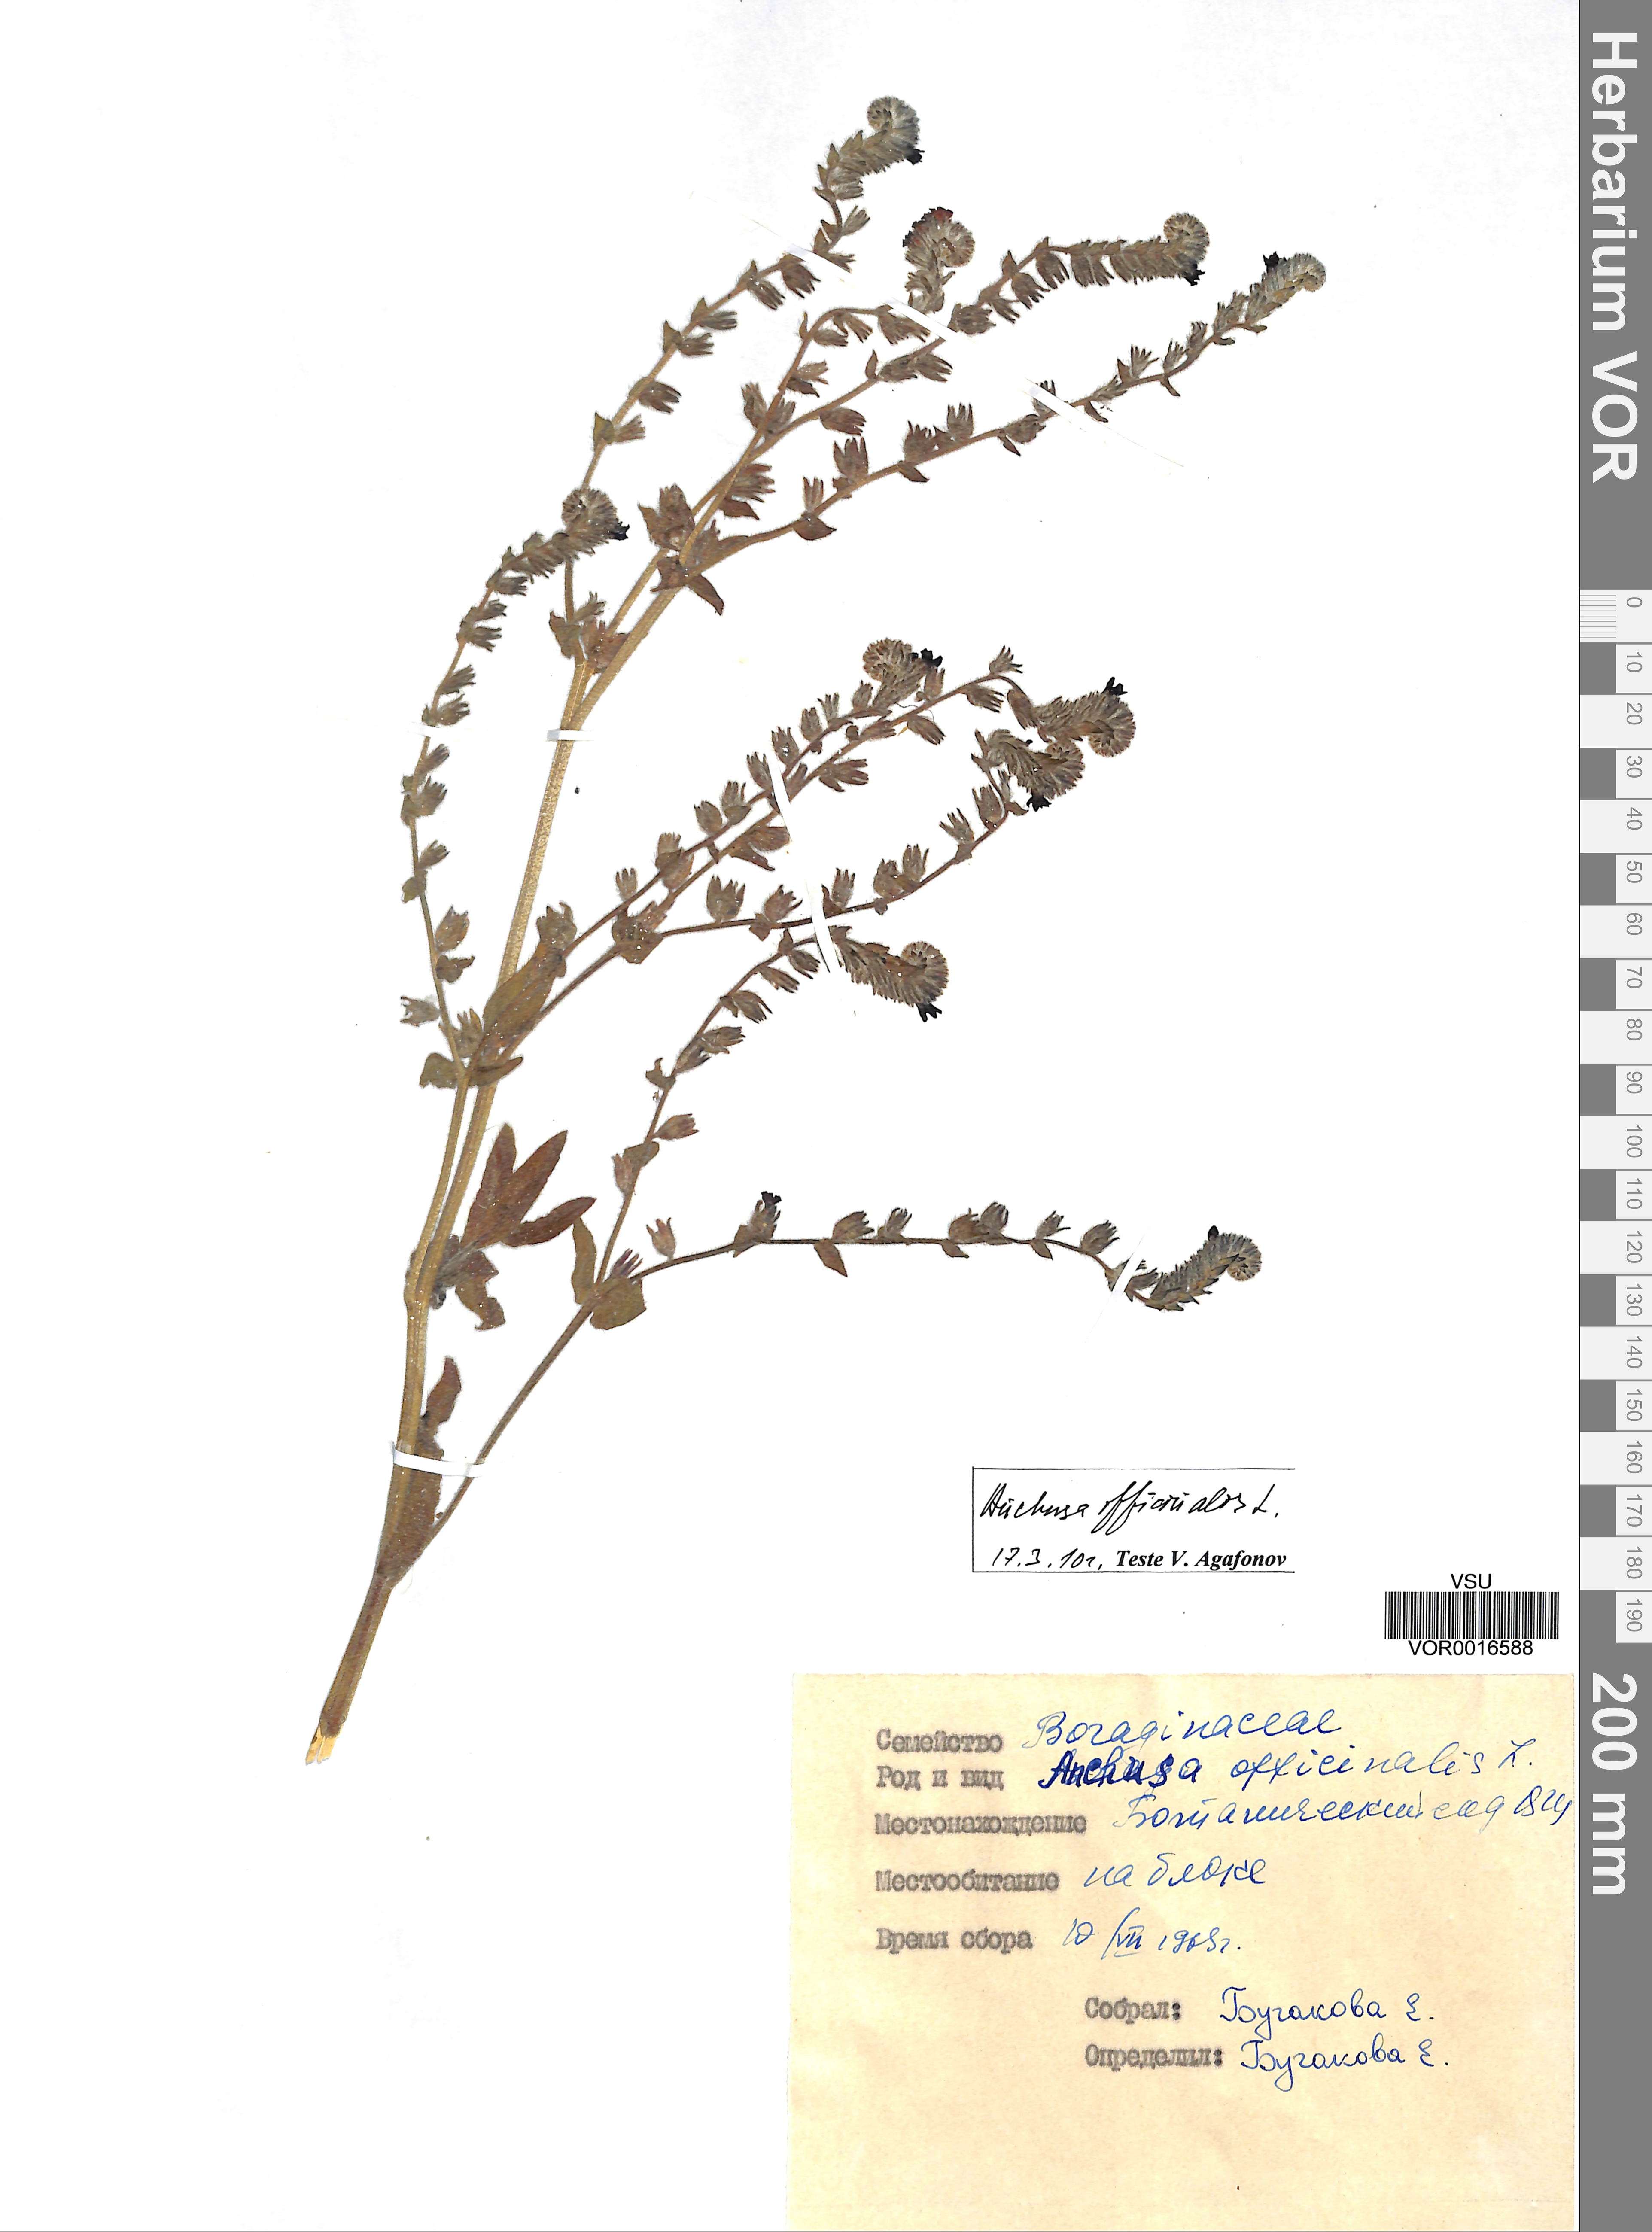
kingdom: Plantae
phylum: Tracheophyta
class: Magnoliopsida
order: Boraginales
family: Boraginaceae
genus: Anchusa
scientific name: Anchusa officinalis
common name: Alkanet
